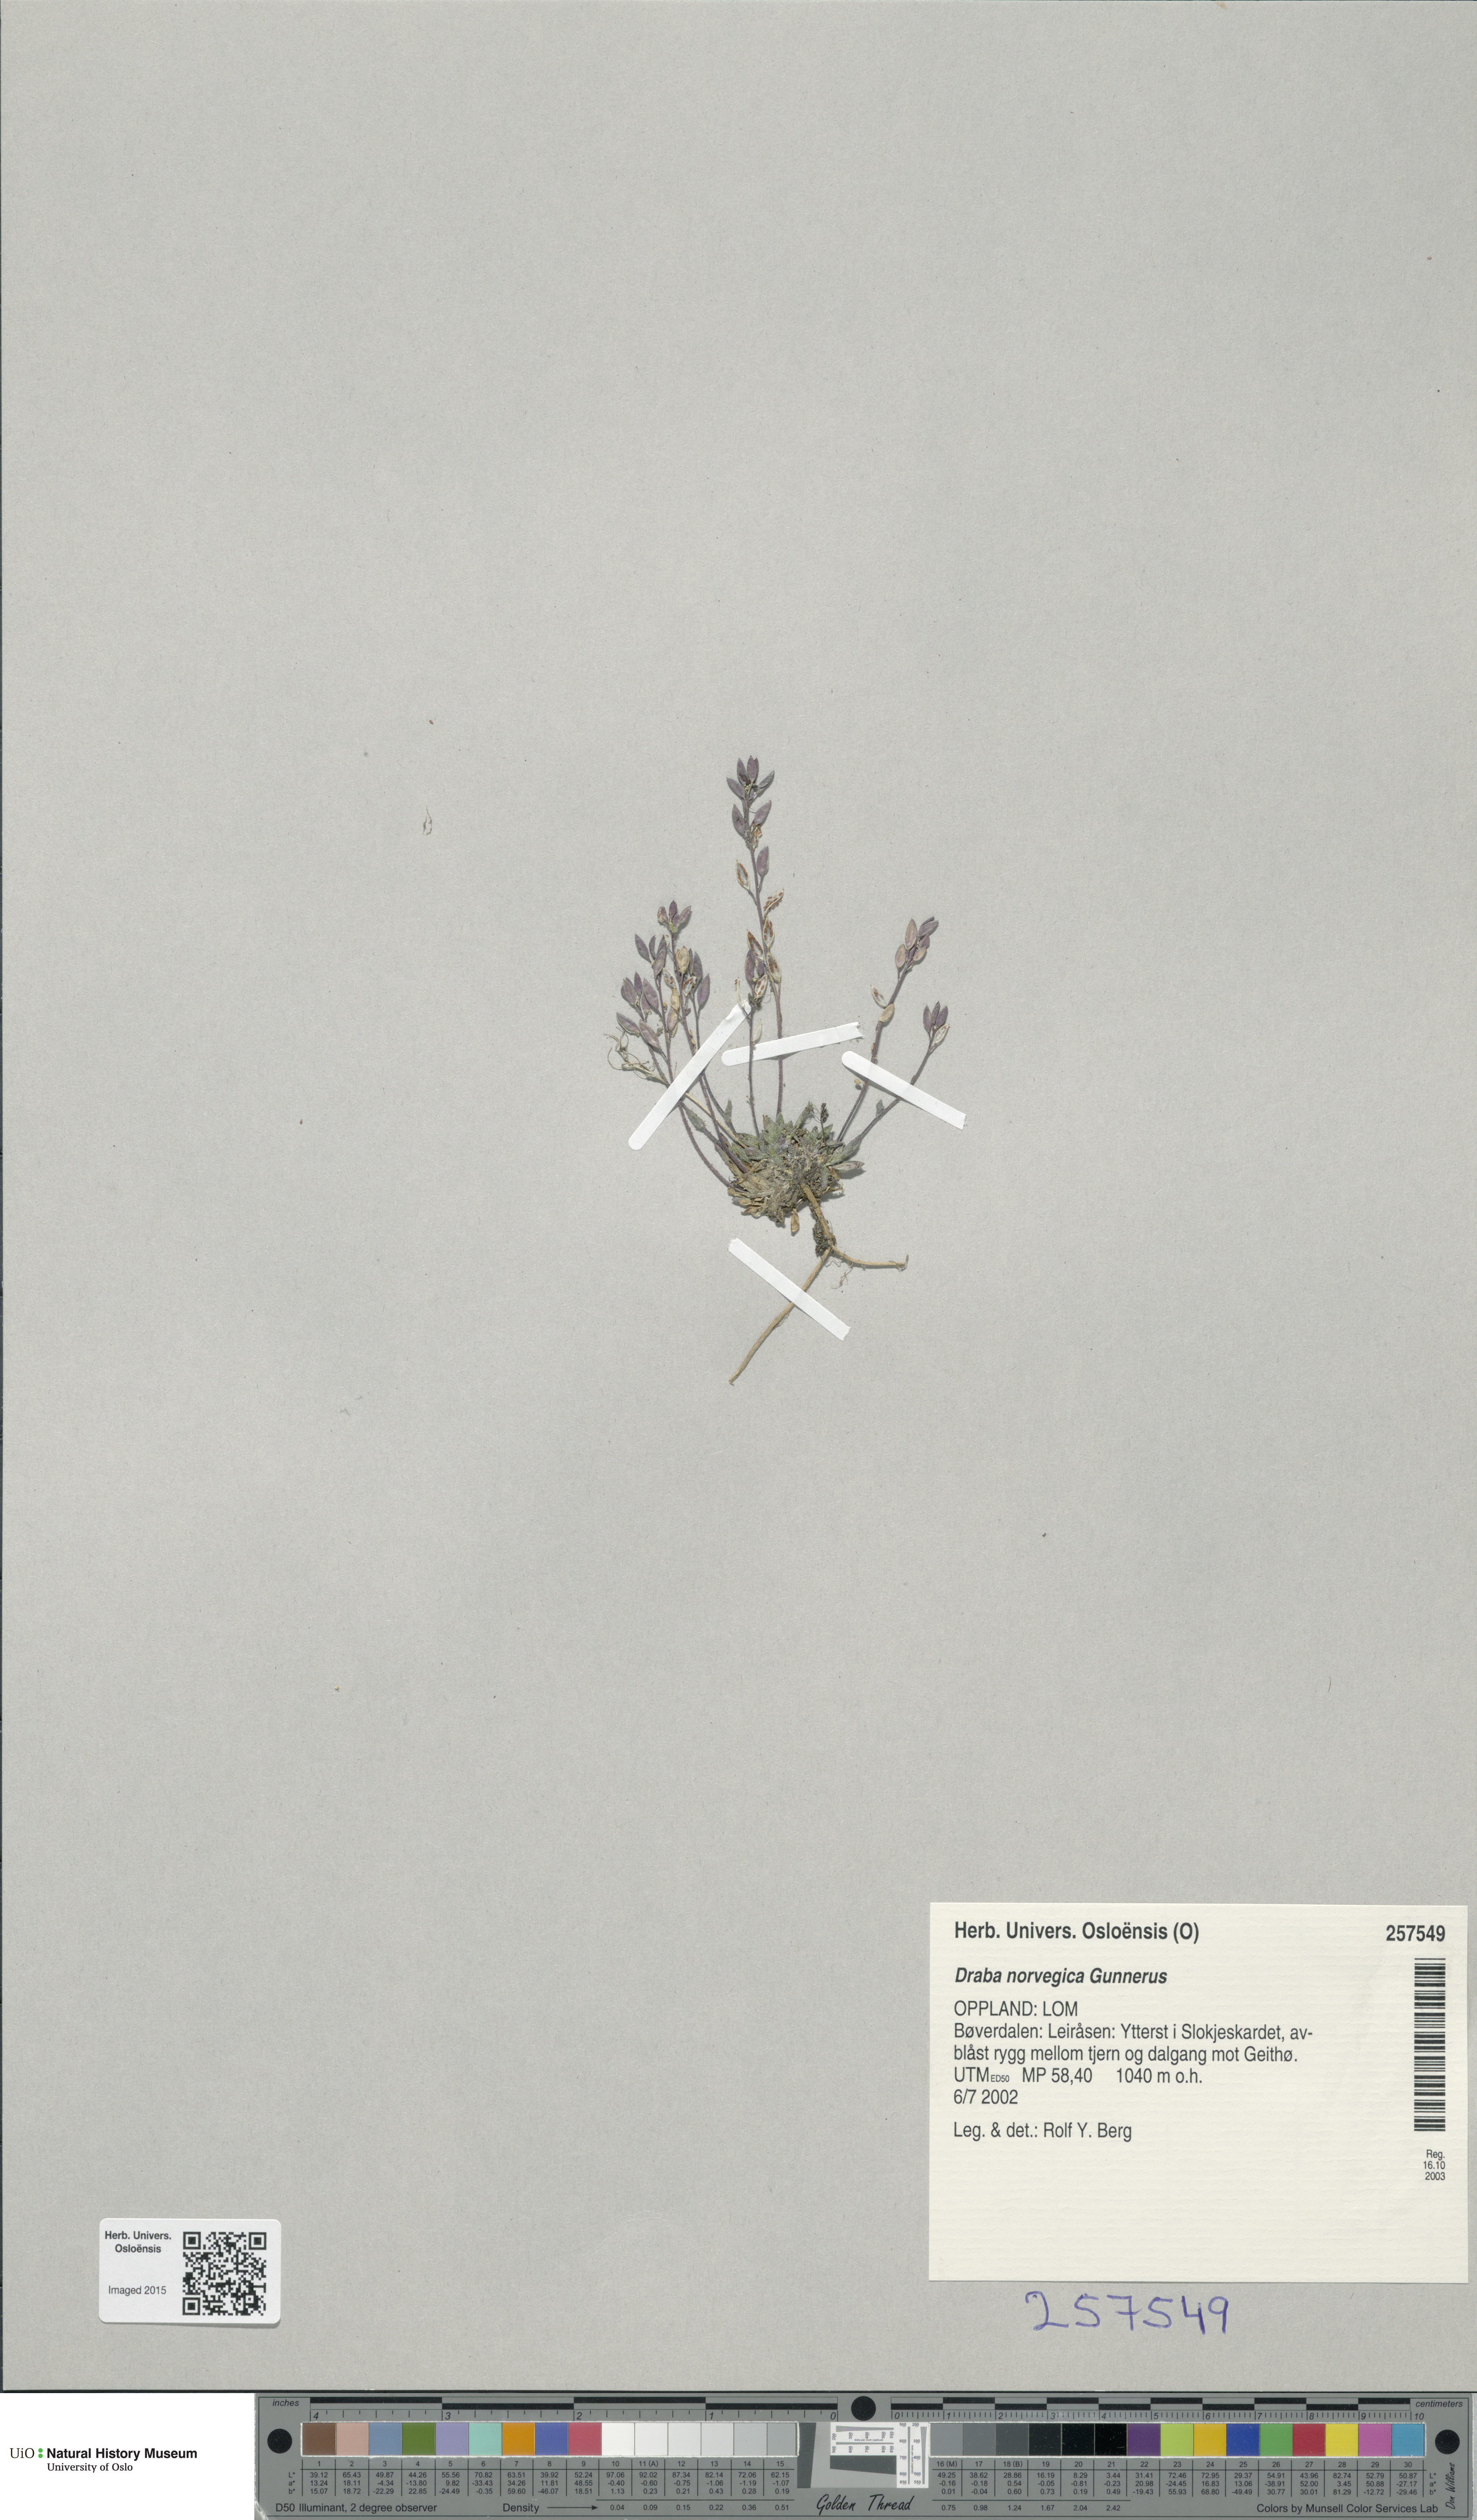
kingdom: Plantae
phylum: Tracheophyta
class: Magnoliopsida
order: Brassicales
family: Brassicaceae
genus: Draba
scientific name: Draba norvegica
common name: Rock whitlowgrass
